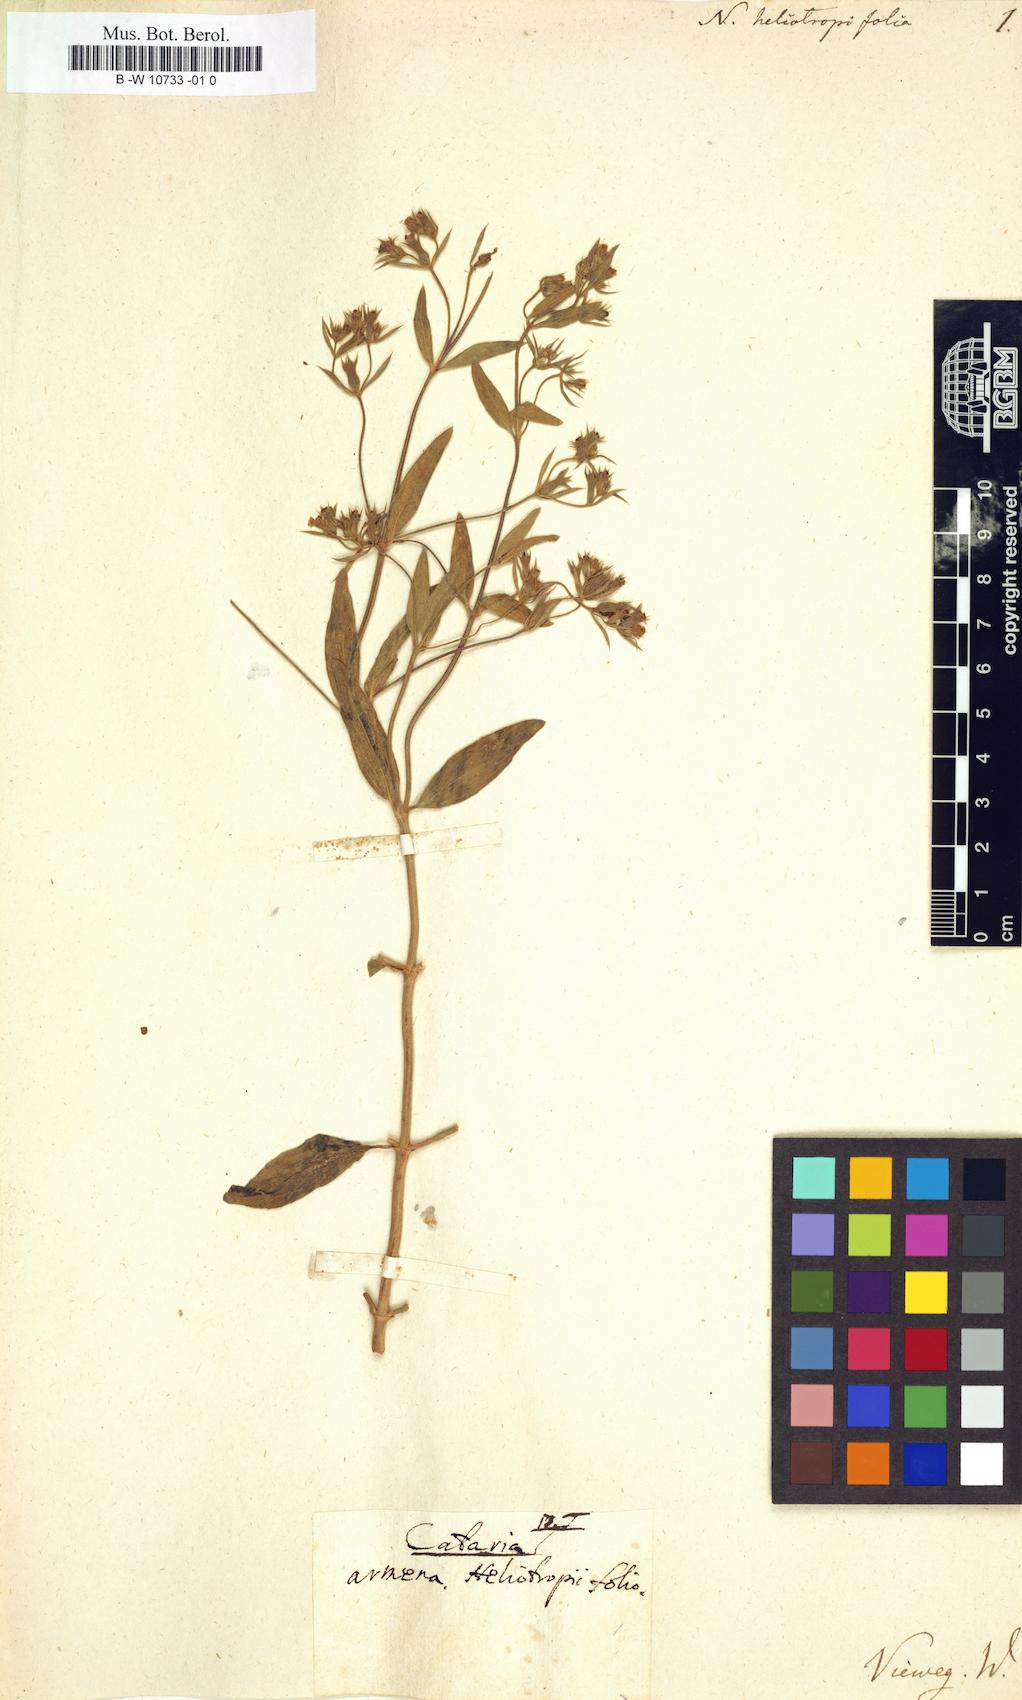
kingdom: Plantae
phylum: Tracheophyta
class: Magnoliopsida
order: Lamiales
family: Lamiaceae
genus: Nepeta
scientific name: Nepeta heliotropifolia
